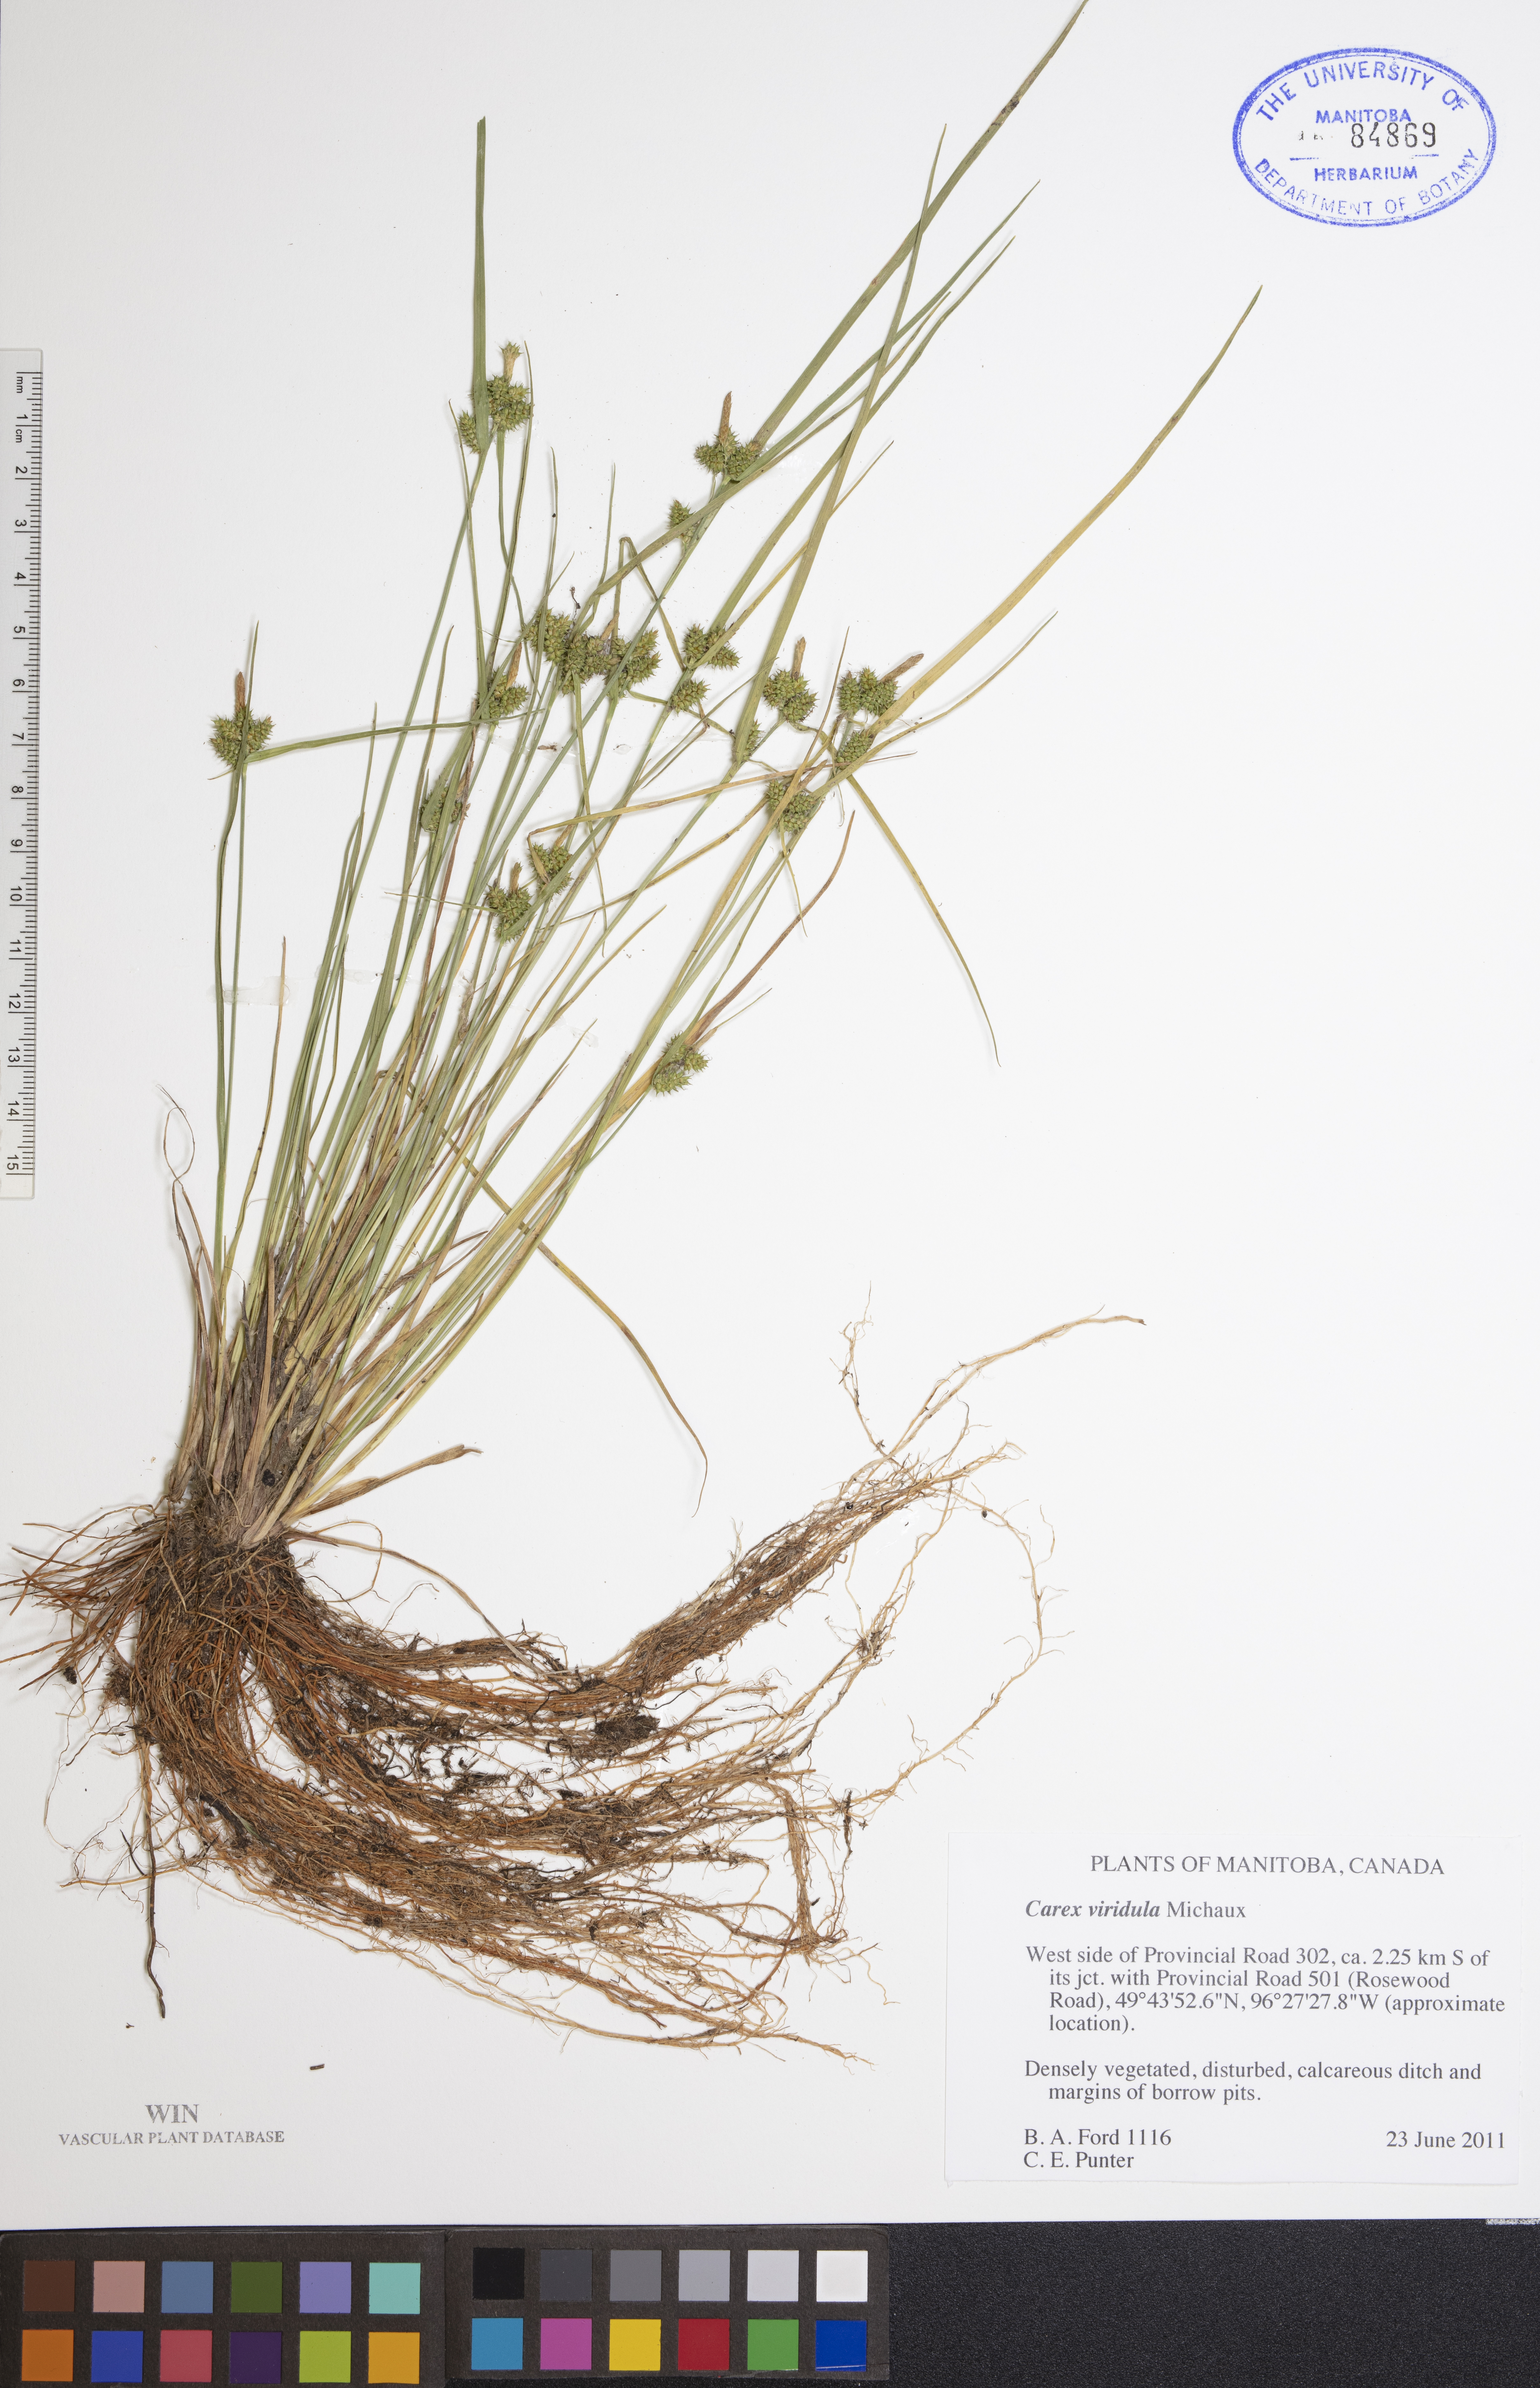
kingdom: Plantae
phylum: Tracheophyta
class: Liliopsida
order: Poales
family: Cyperaceae
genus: Carex
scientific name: Carex oederi
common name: Common & small-fruited yellow-sedge
